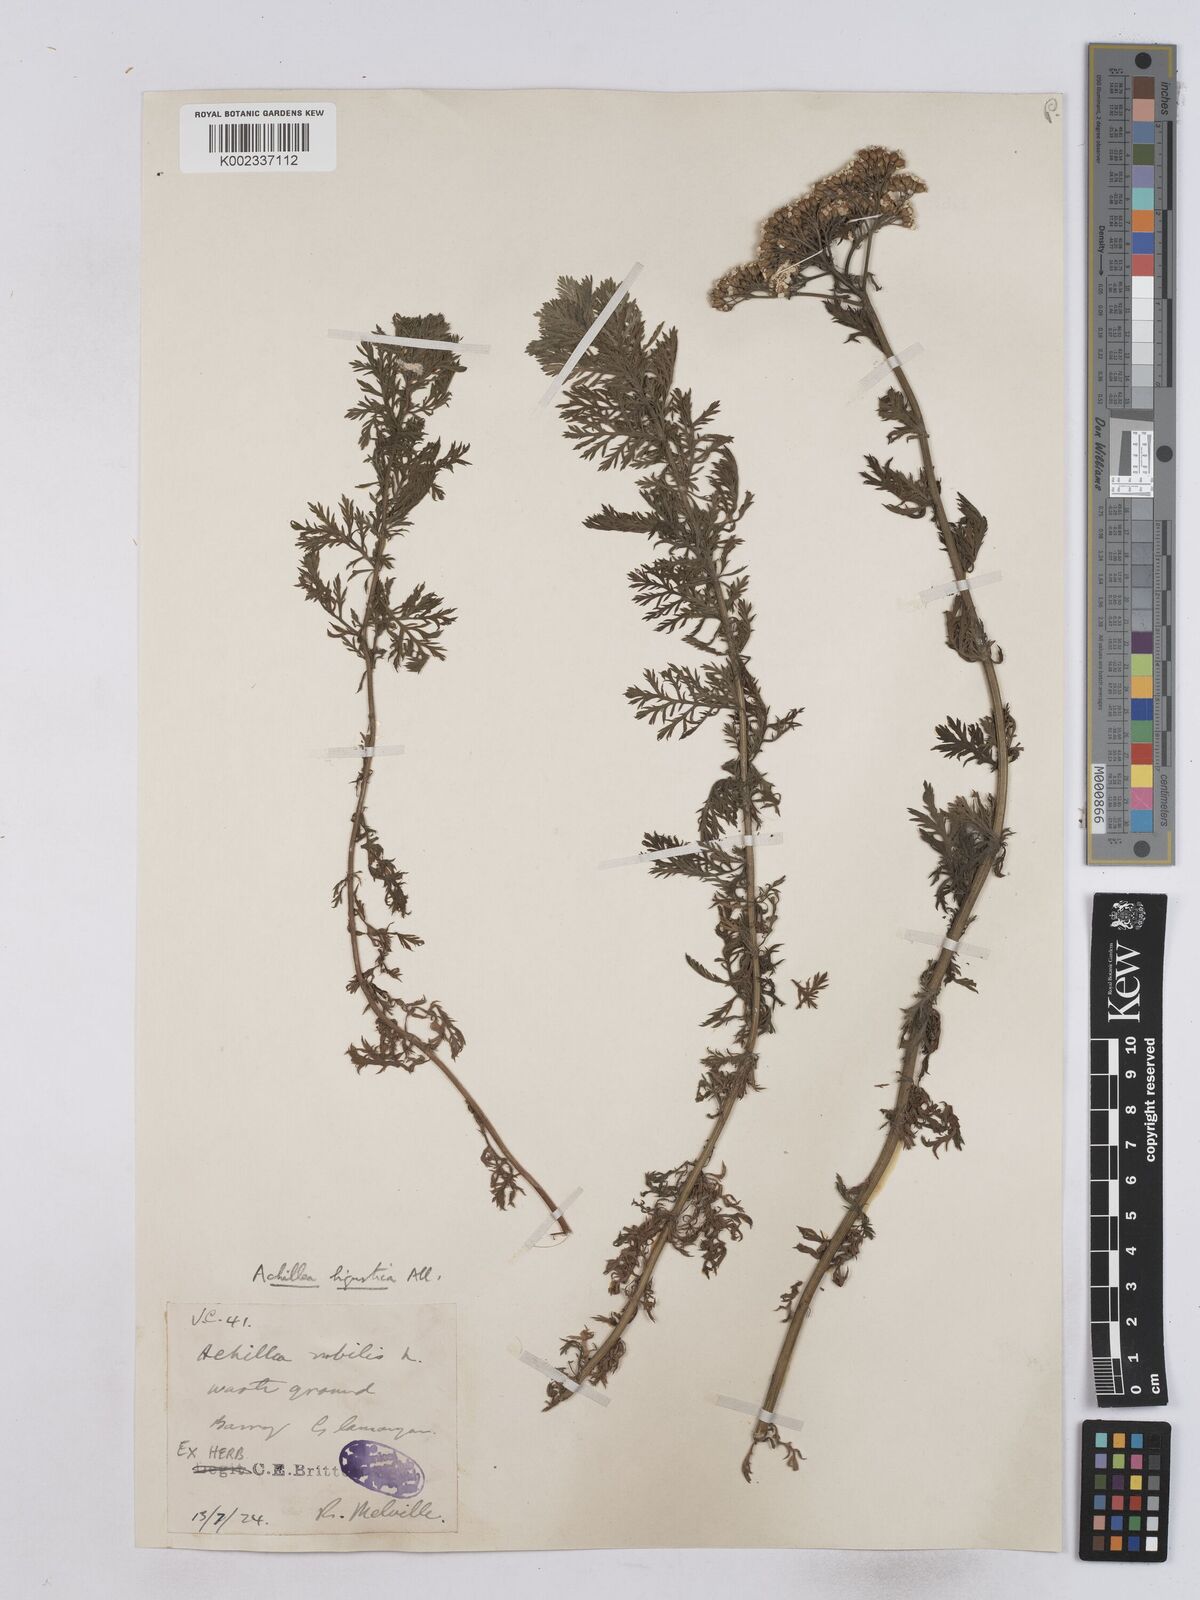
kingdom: Plantae
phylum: Tracheophyta
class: Magnoliopsida
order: Asterales
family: Asteraceae
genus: Achillea
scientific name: Achillea ligustica
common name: Southern yarrow
